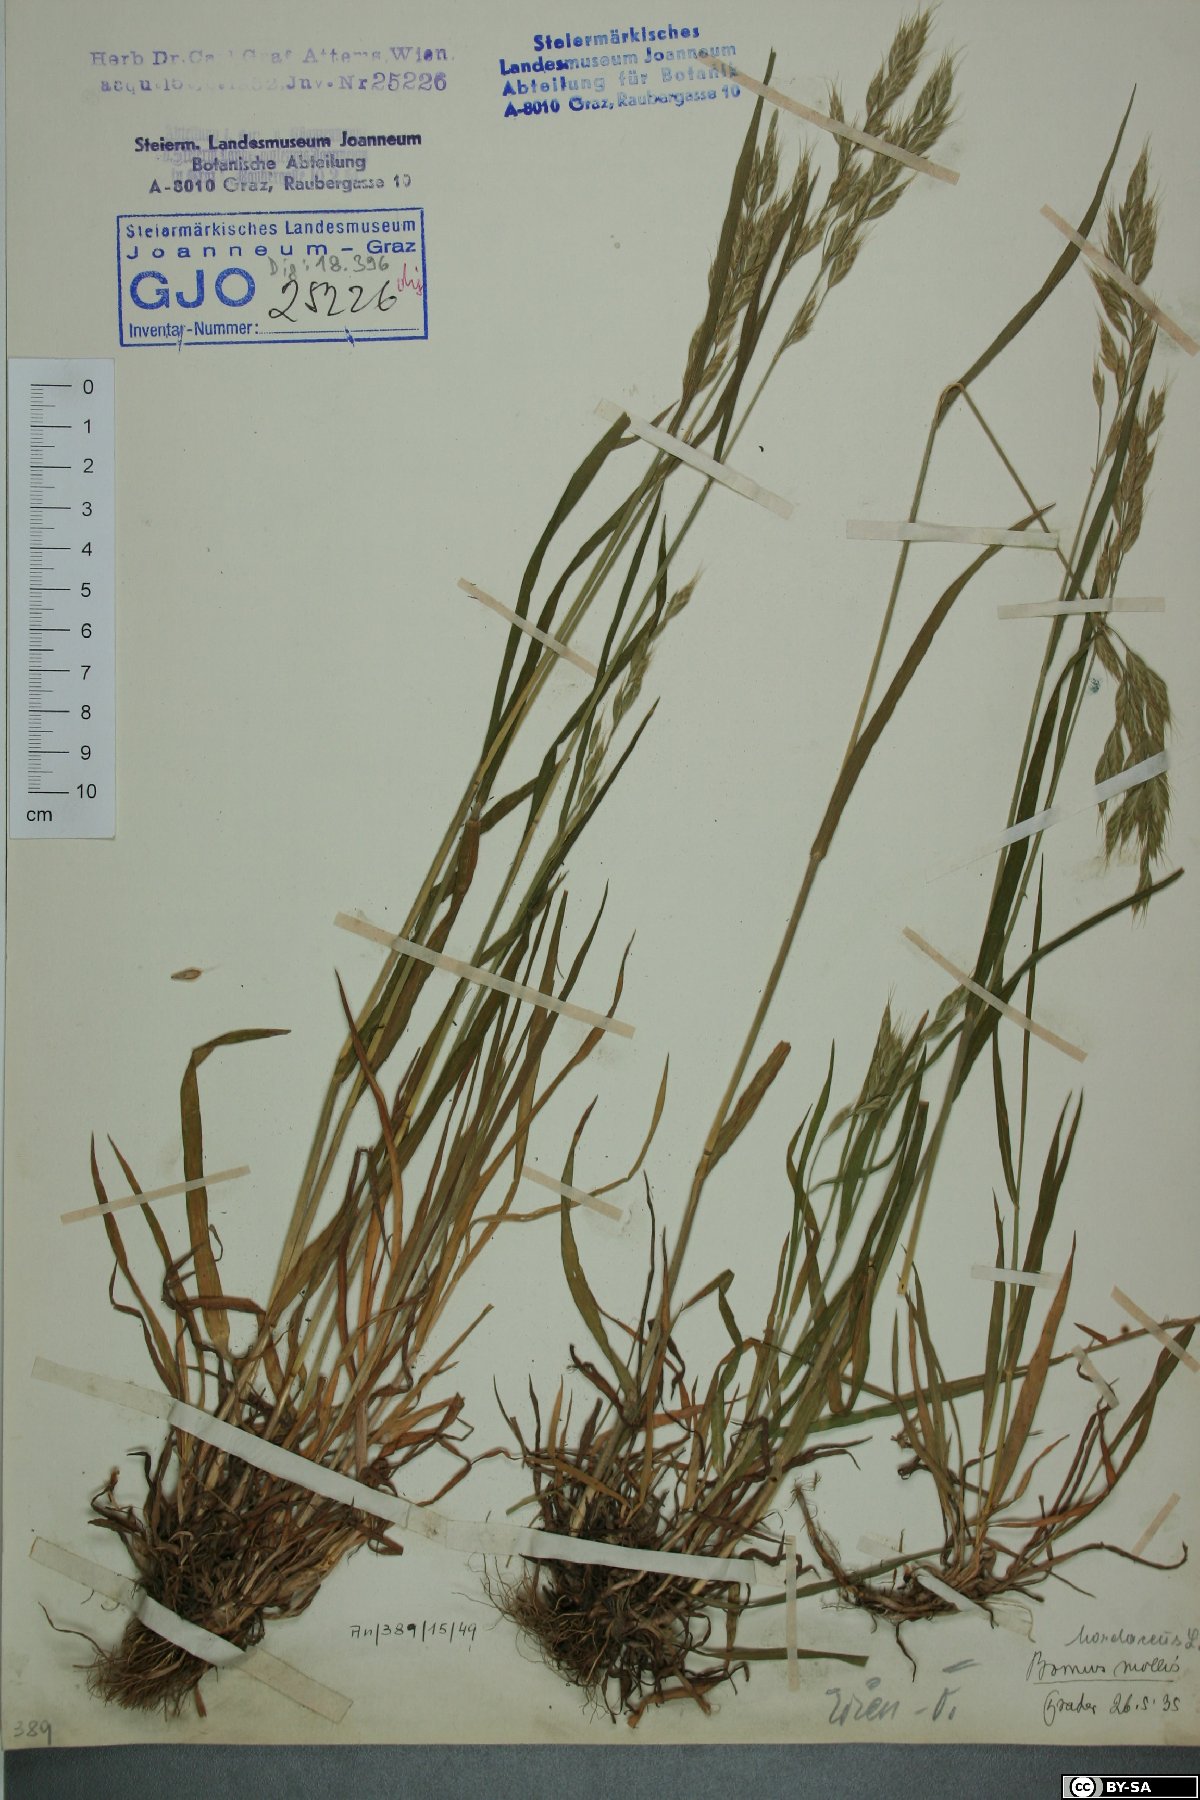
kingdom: Plantae
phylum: Tracheophyta
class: Liliopsida
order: Poales
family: Poaceae
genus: Bromus
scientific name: Bromus hordeaceus
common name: Soft brome
